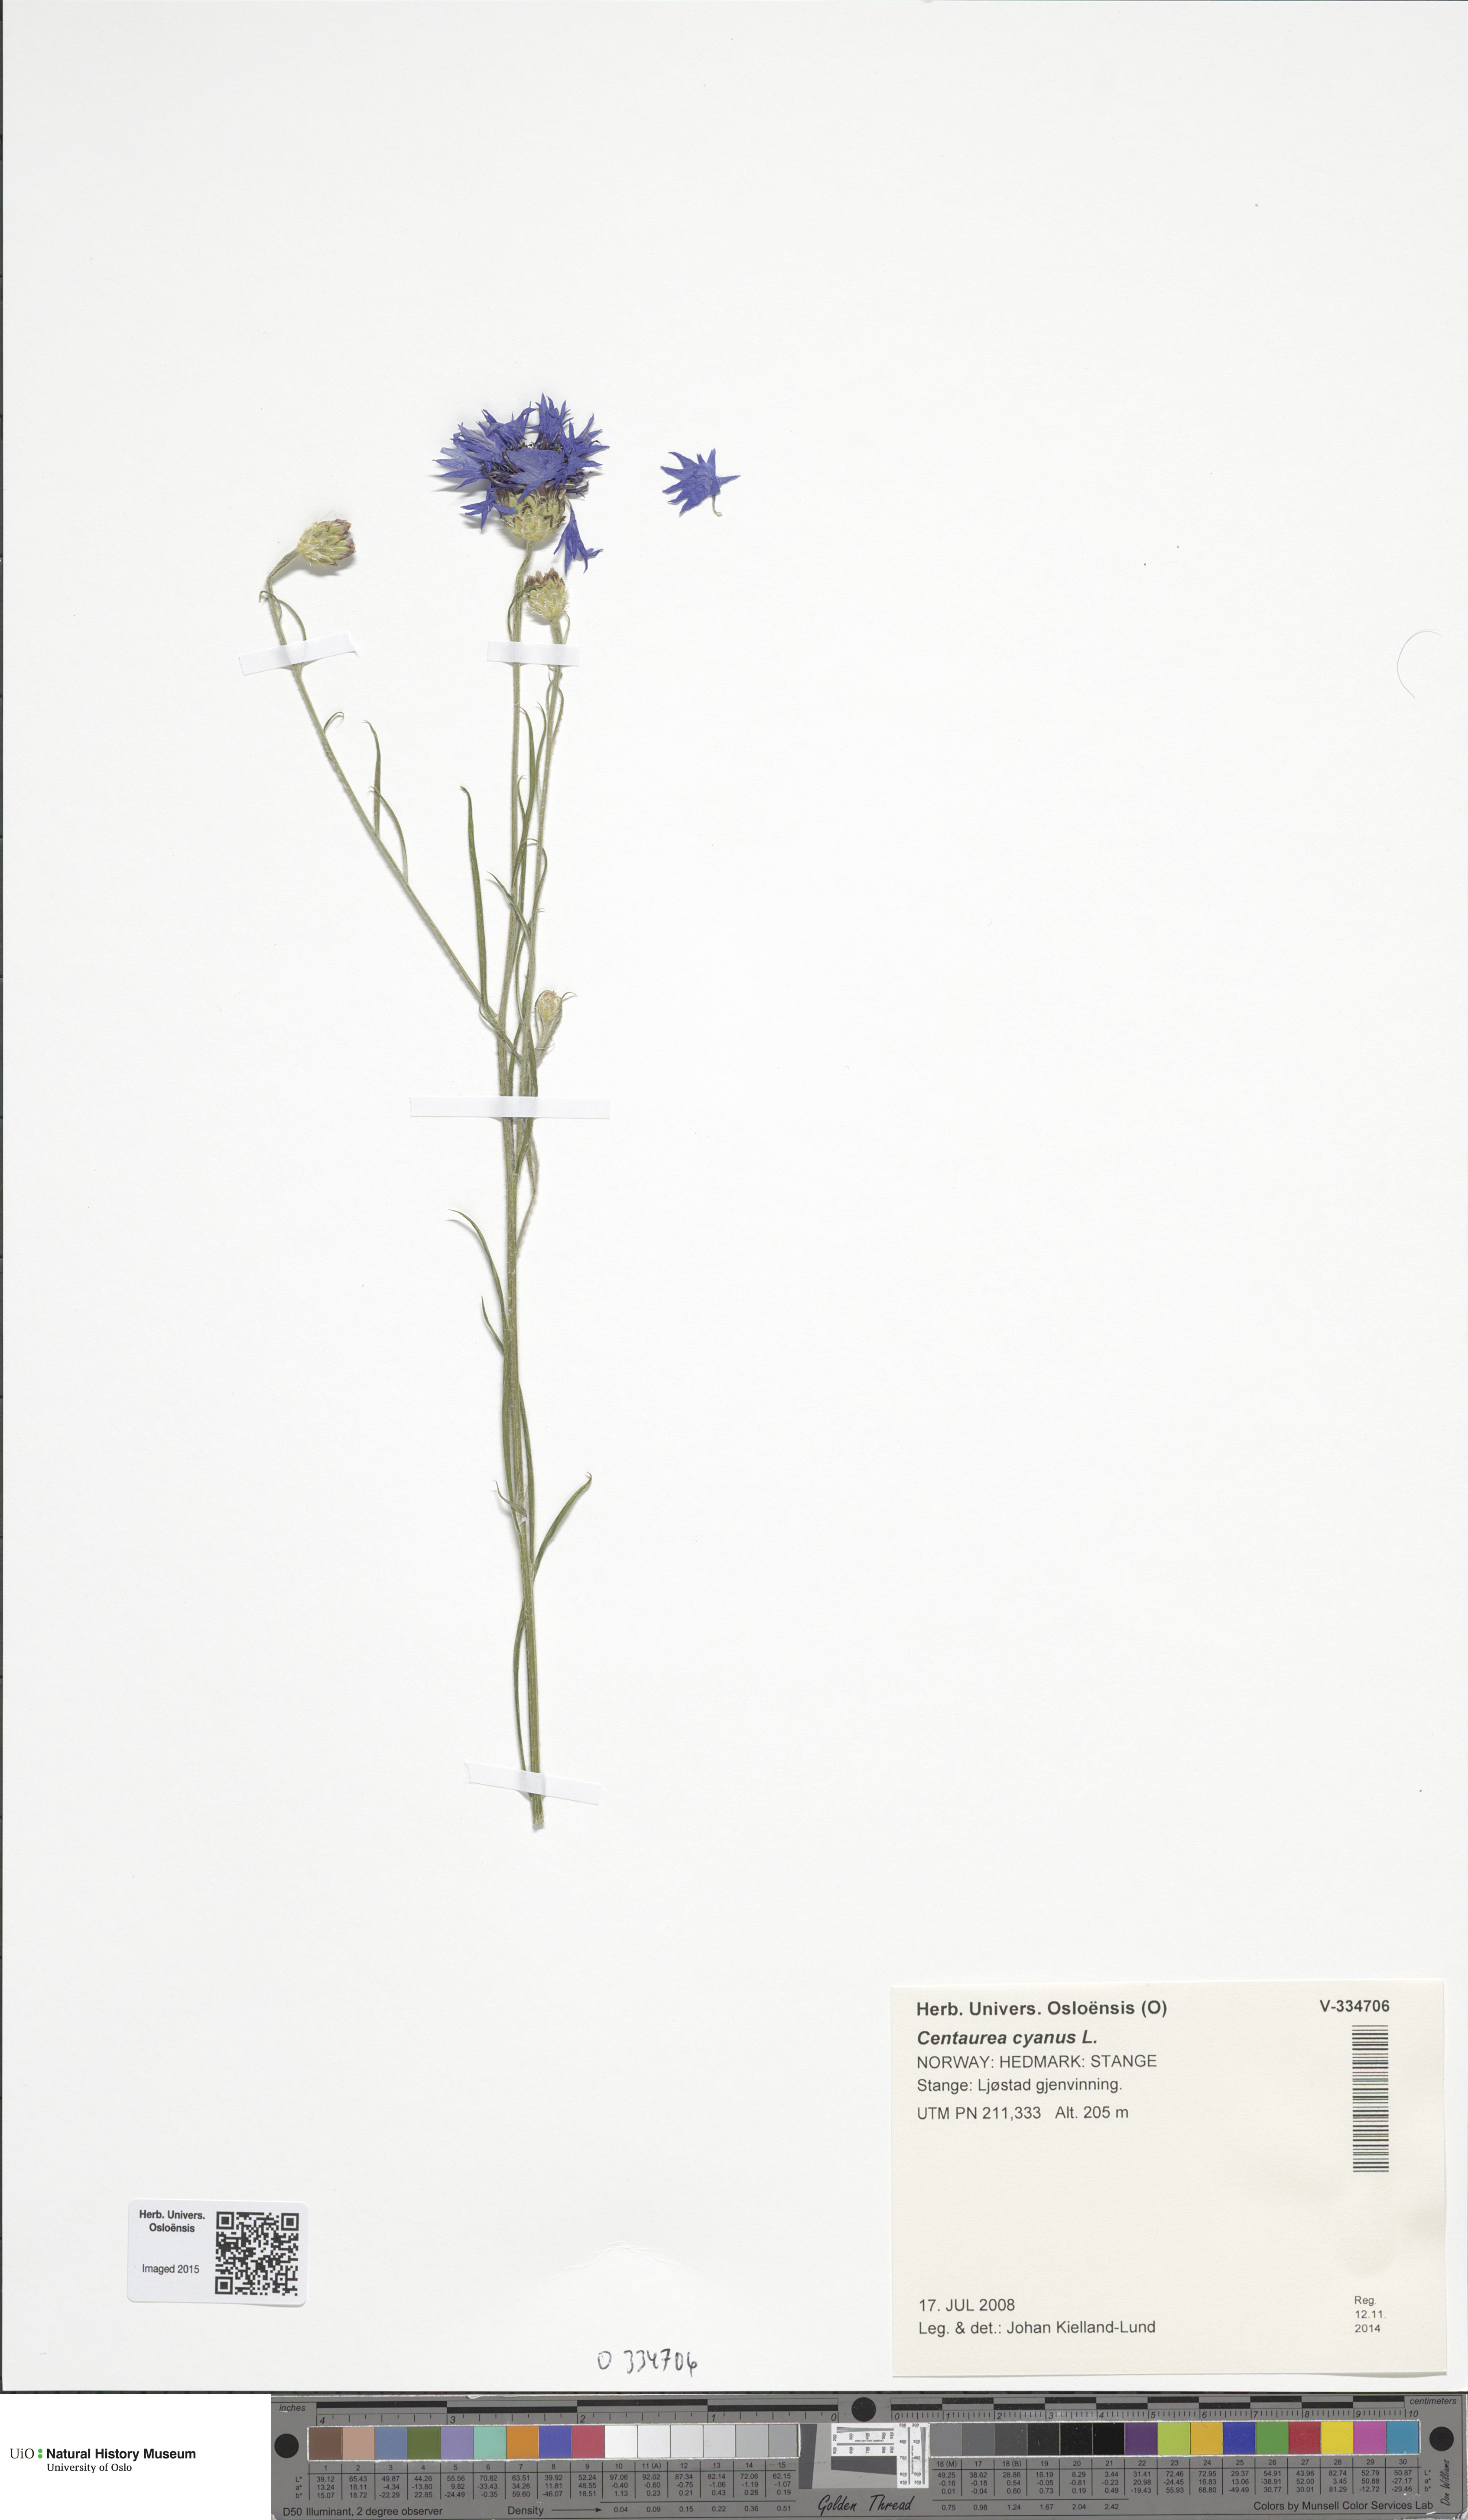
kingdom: Plantae
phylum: Tracheophyta
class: Magnoliopsida
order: Asterales
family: Asteraceae
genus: Centaurea
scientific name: Centaurea cyanus
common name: Cornflower
